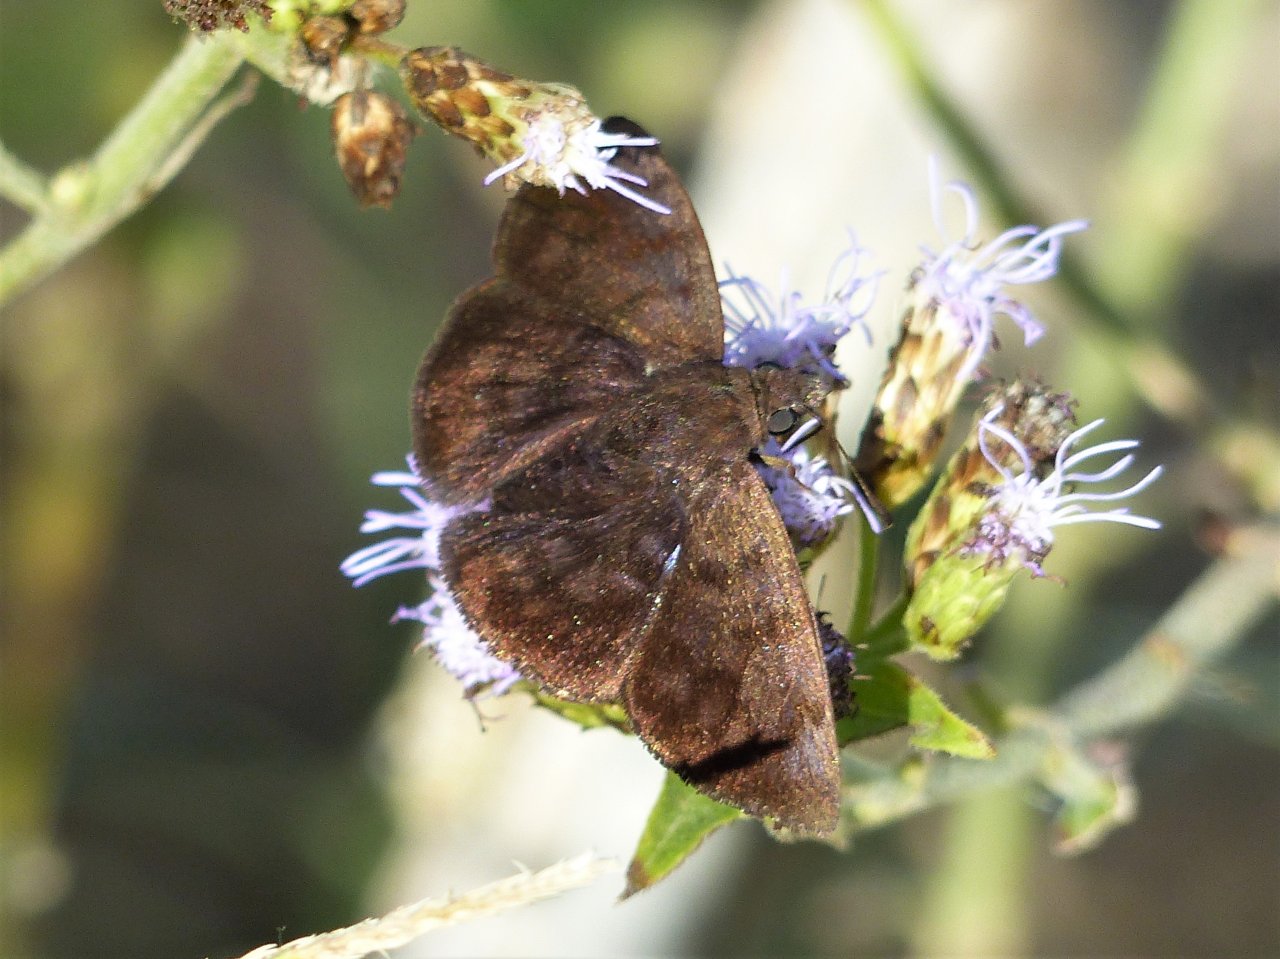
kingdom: Animalia
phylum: Arthropoda
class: Insecta
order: Lepidoptera
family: Hesperiidae
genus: Pellicia
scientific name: Pellicia costimacula
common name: Glazed Pellicia
